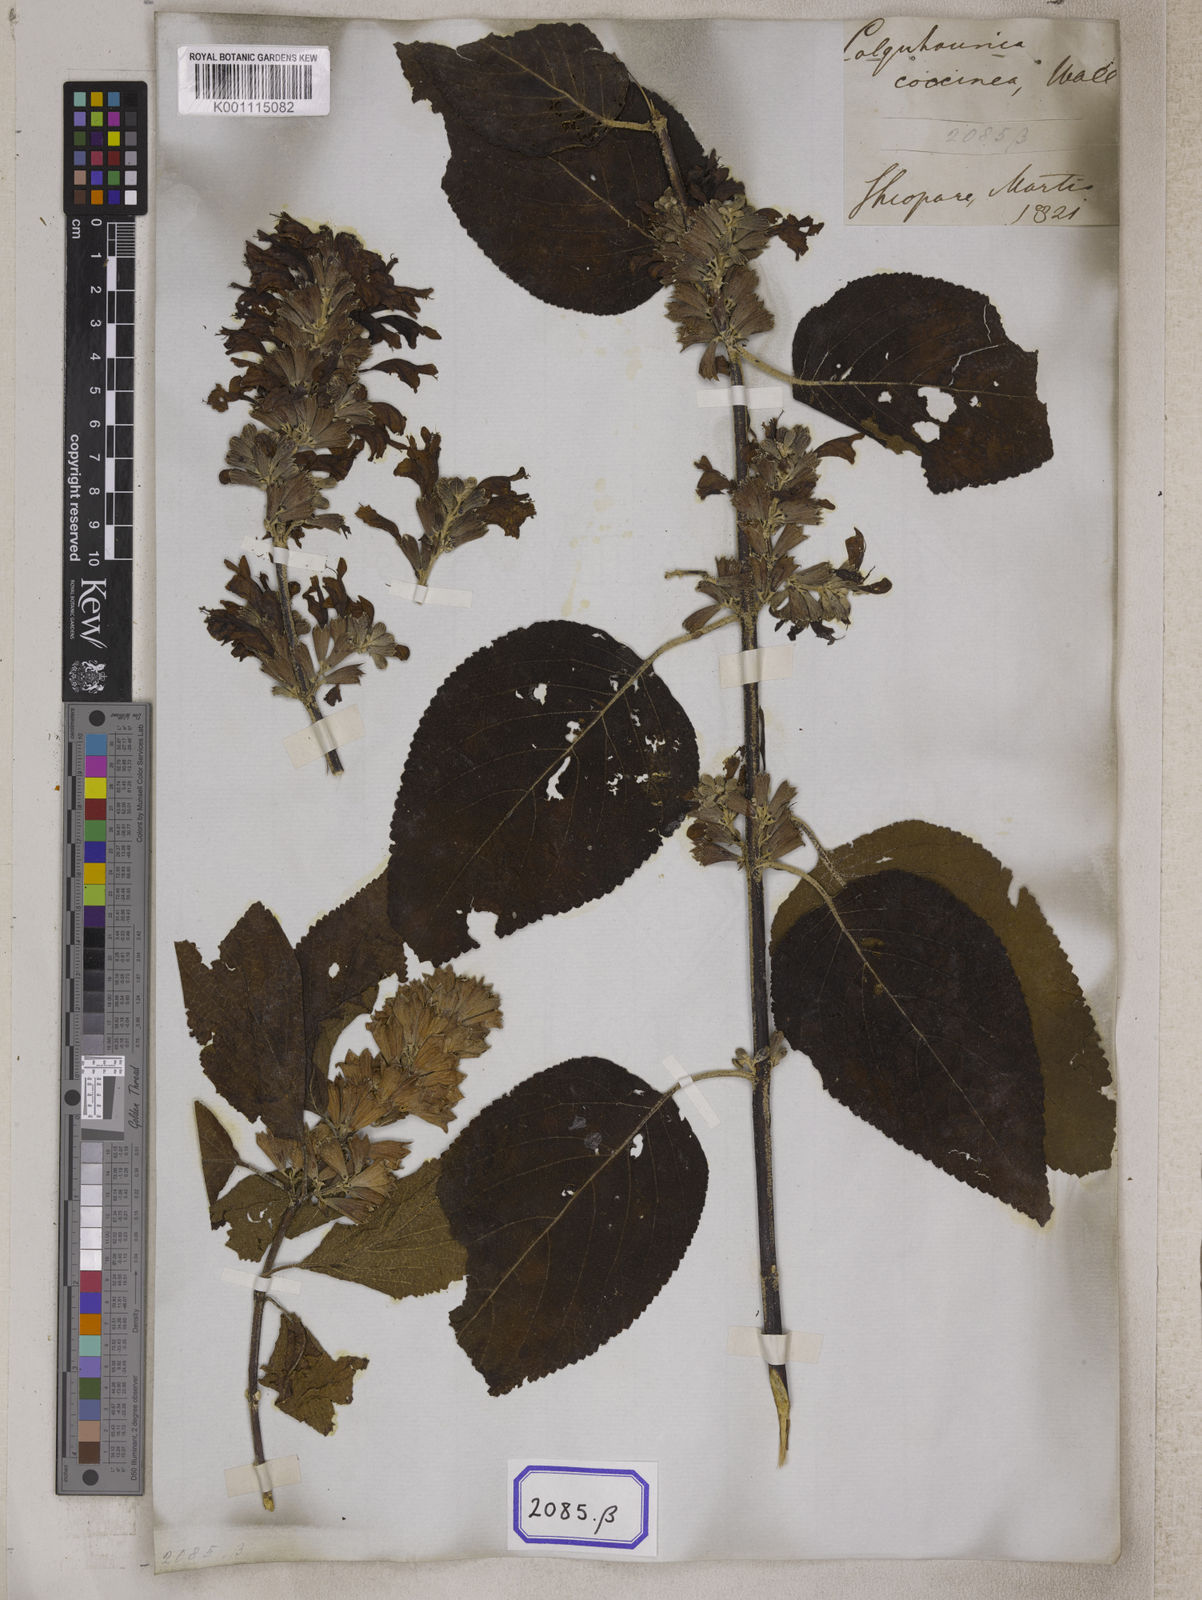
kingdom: Plantae
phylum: Tracheophyta
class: Magnoliopsida
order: Lamiales
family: Lamiaceae
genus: Colquhounia
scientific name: Colquhounia
